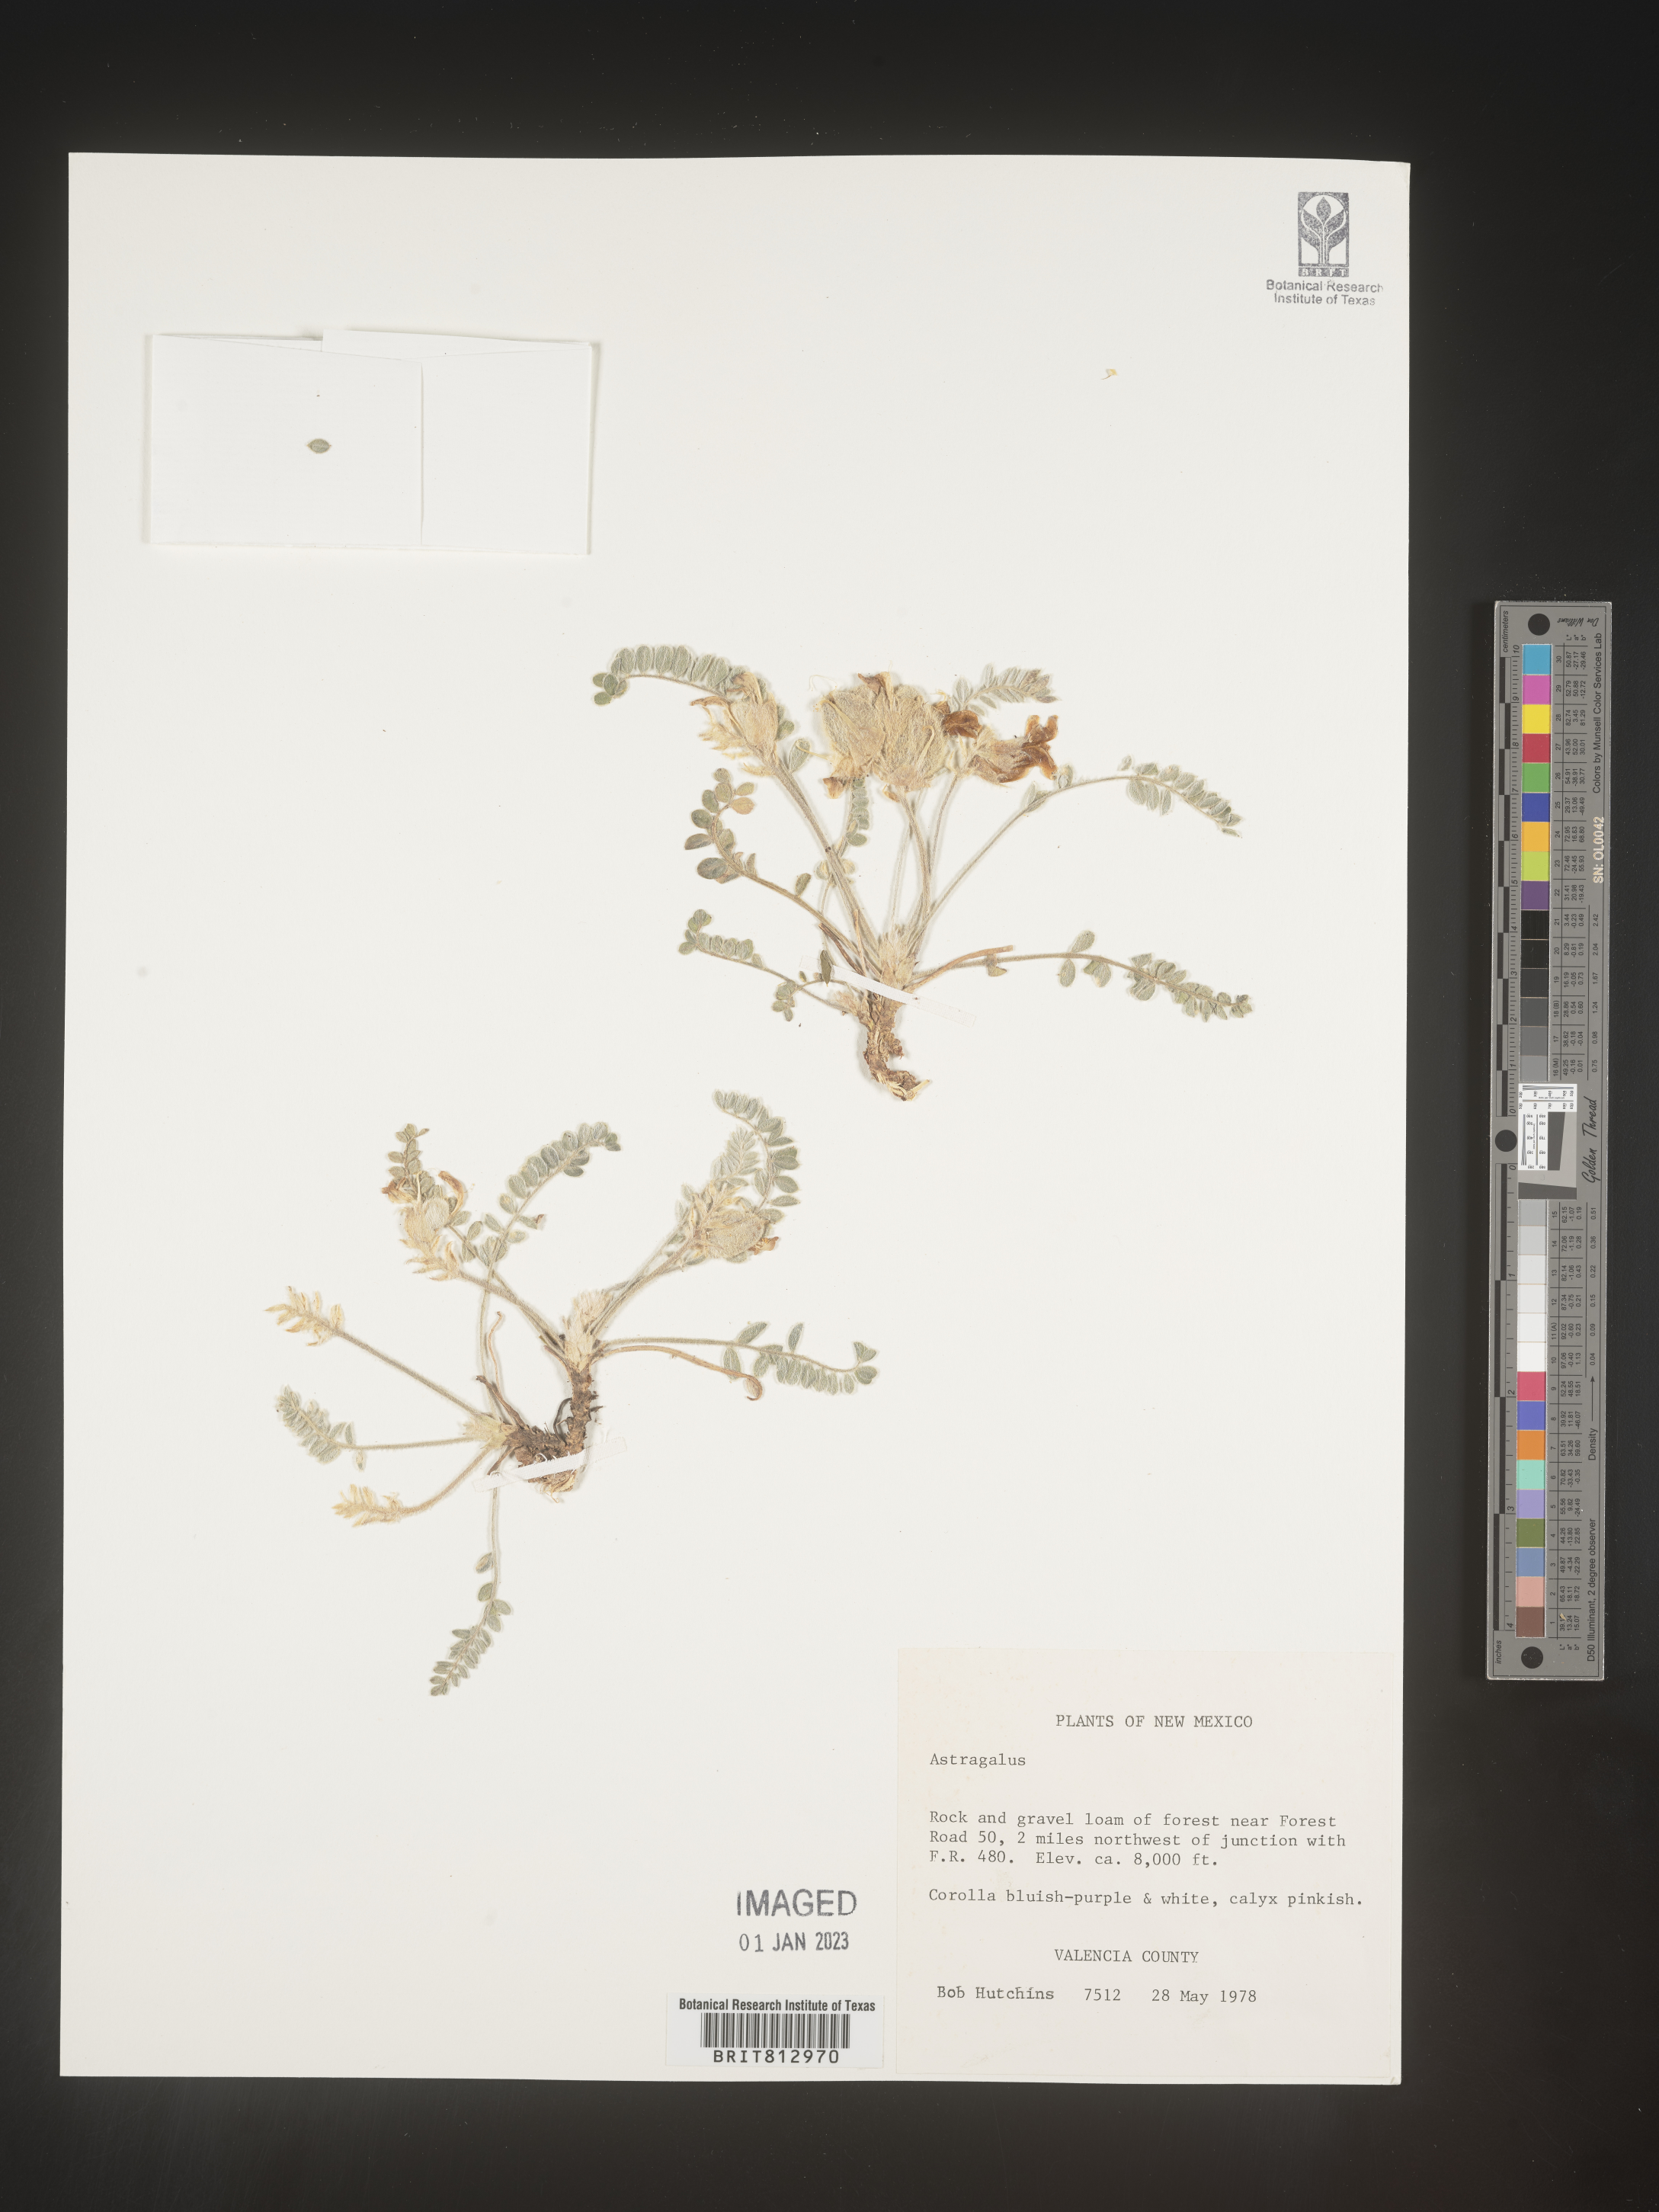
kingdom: Plantae
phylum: Tracheophyta
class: Magnoliopsida
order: Fabales
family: Fabaceae
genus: Astragalus
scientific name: Astragalus
